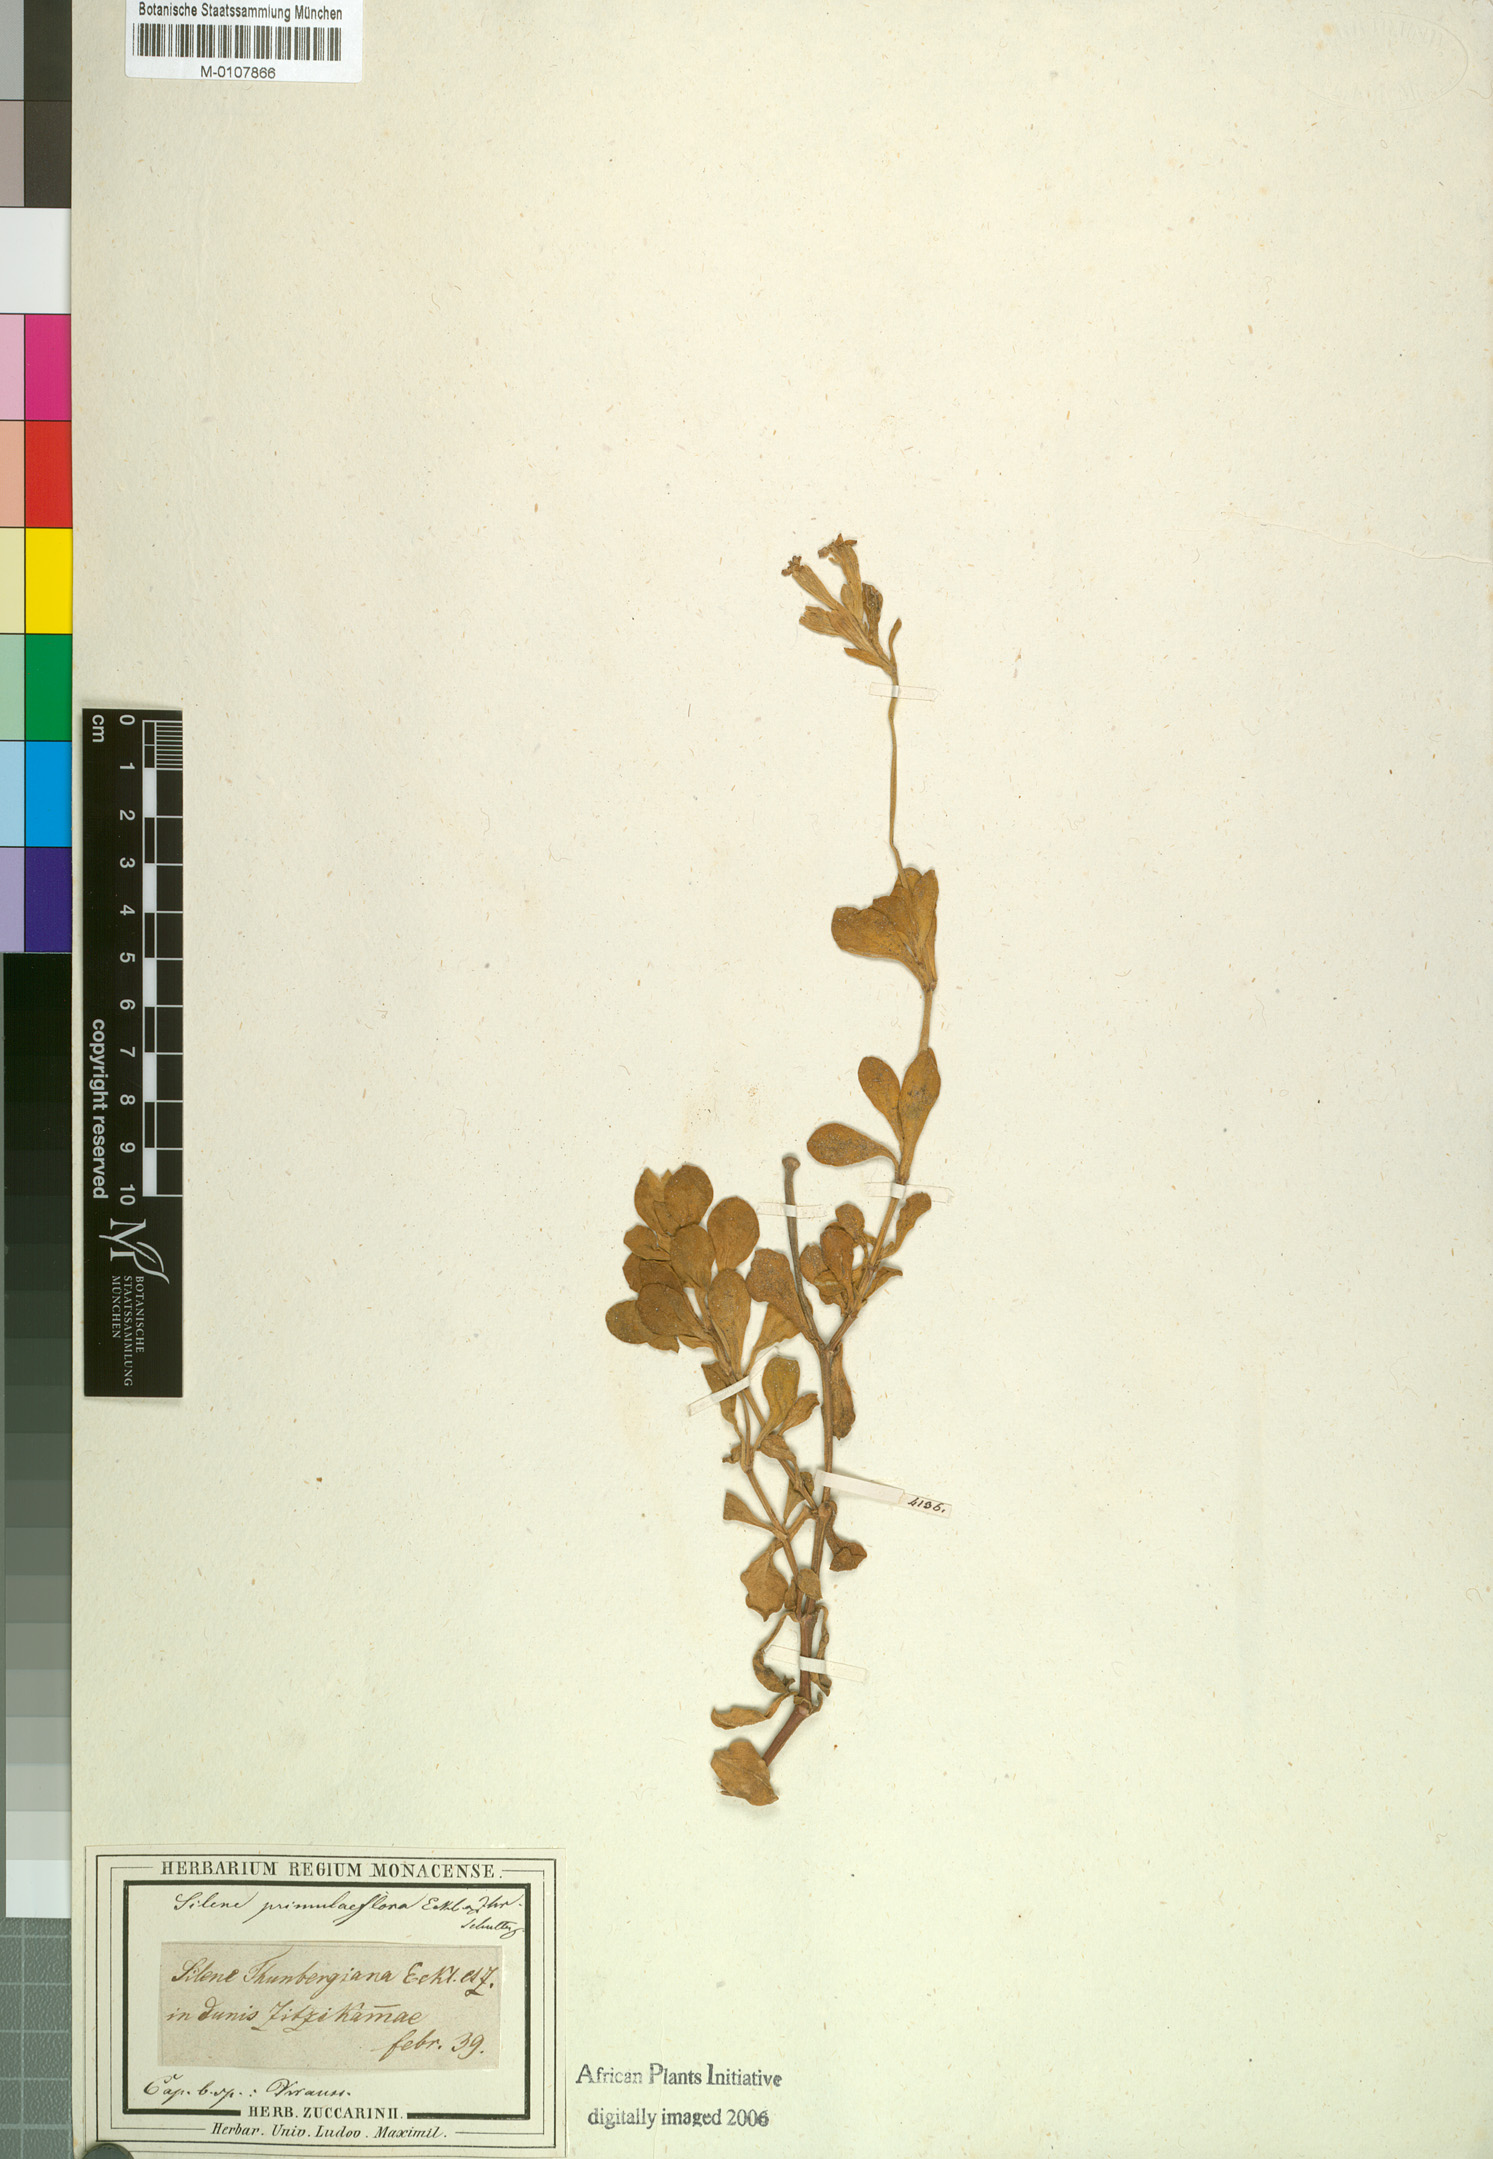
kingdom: Plantae
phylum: Tracheophyta
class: Magnoliopsida
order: Caryophyllales
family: Caryophyllaceae
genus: Silene
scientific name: Silene crassifolia
